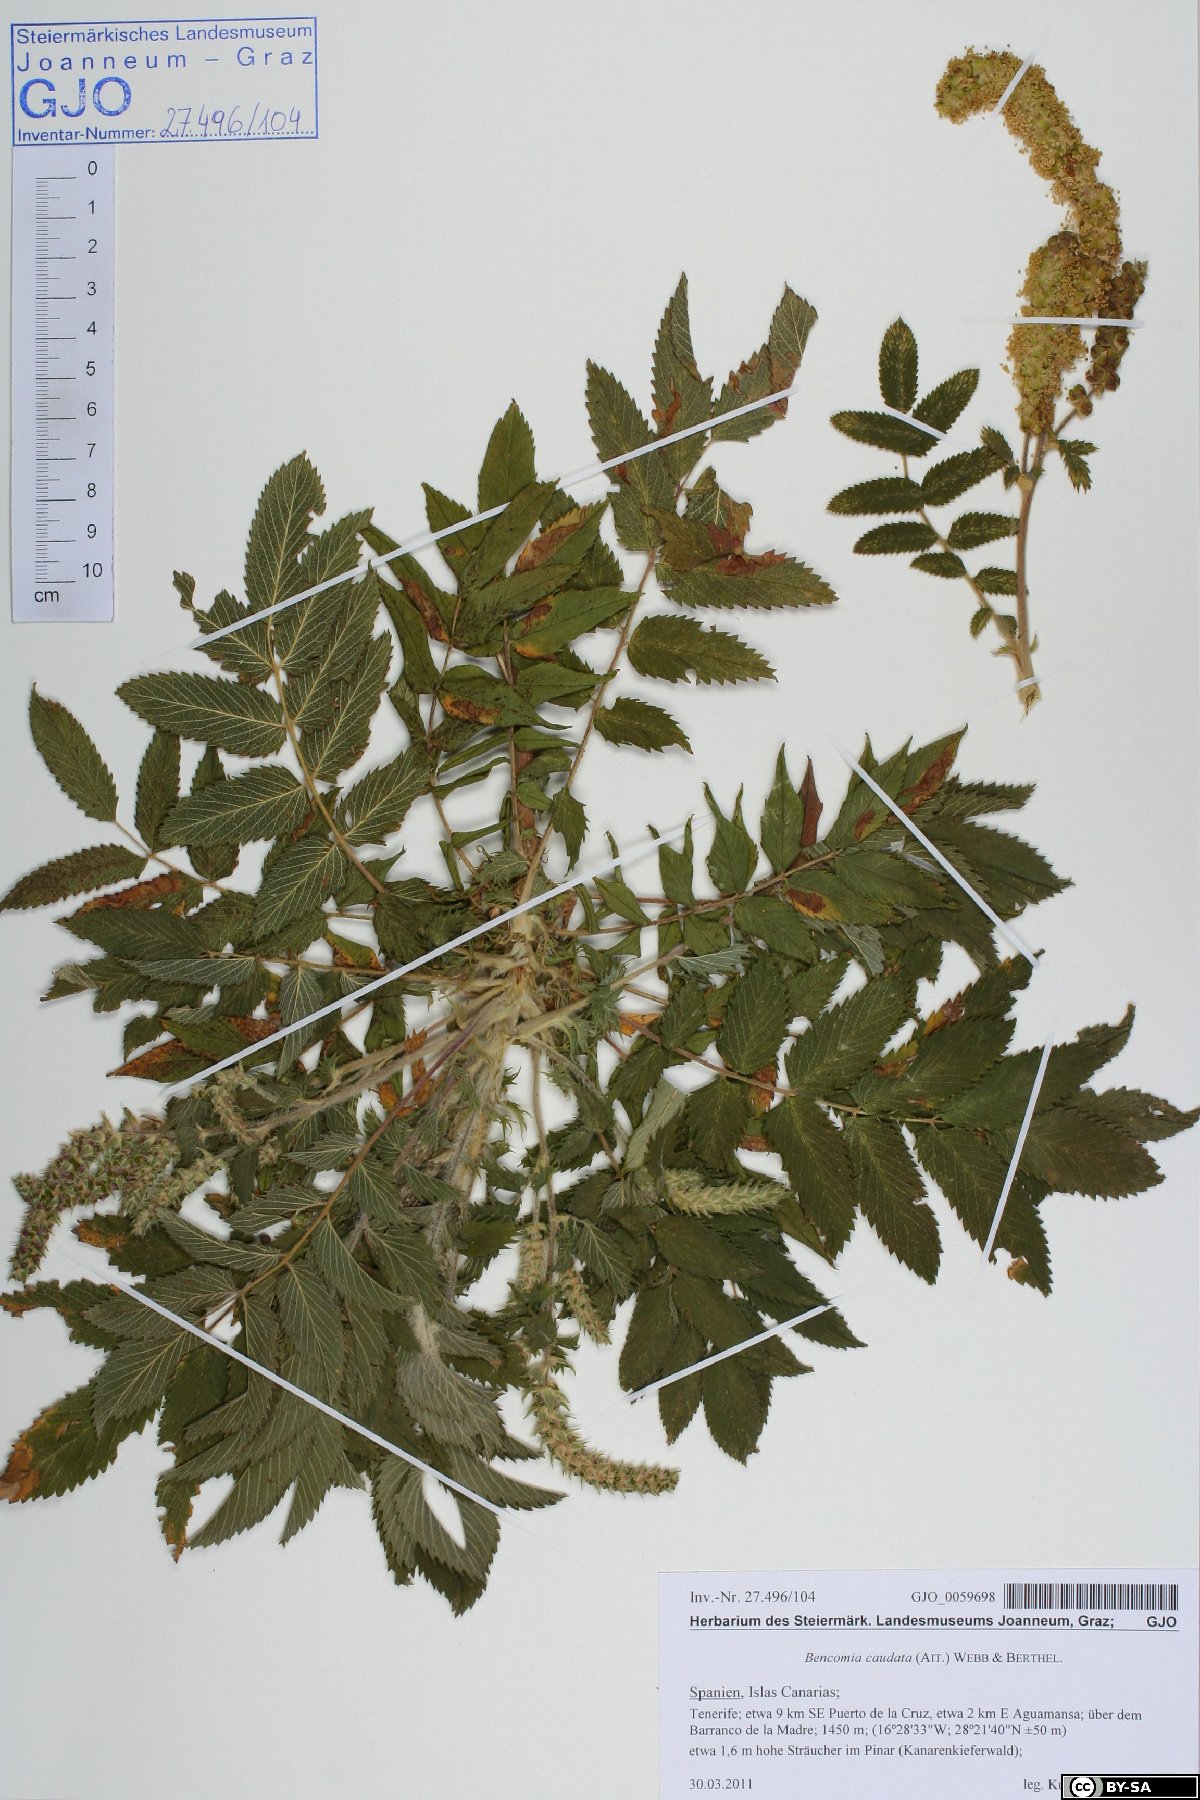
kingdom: Plantae
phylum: Tracheophyta
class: Magnoliopsida
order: Rosales
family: Rosaceae
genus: Bencomia
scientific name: Bencomia caudata
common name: Bencomia
